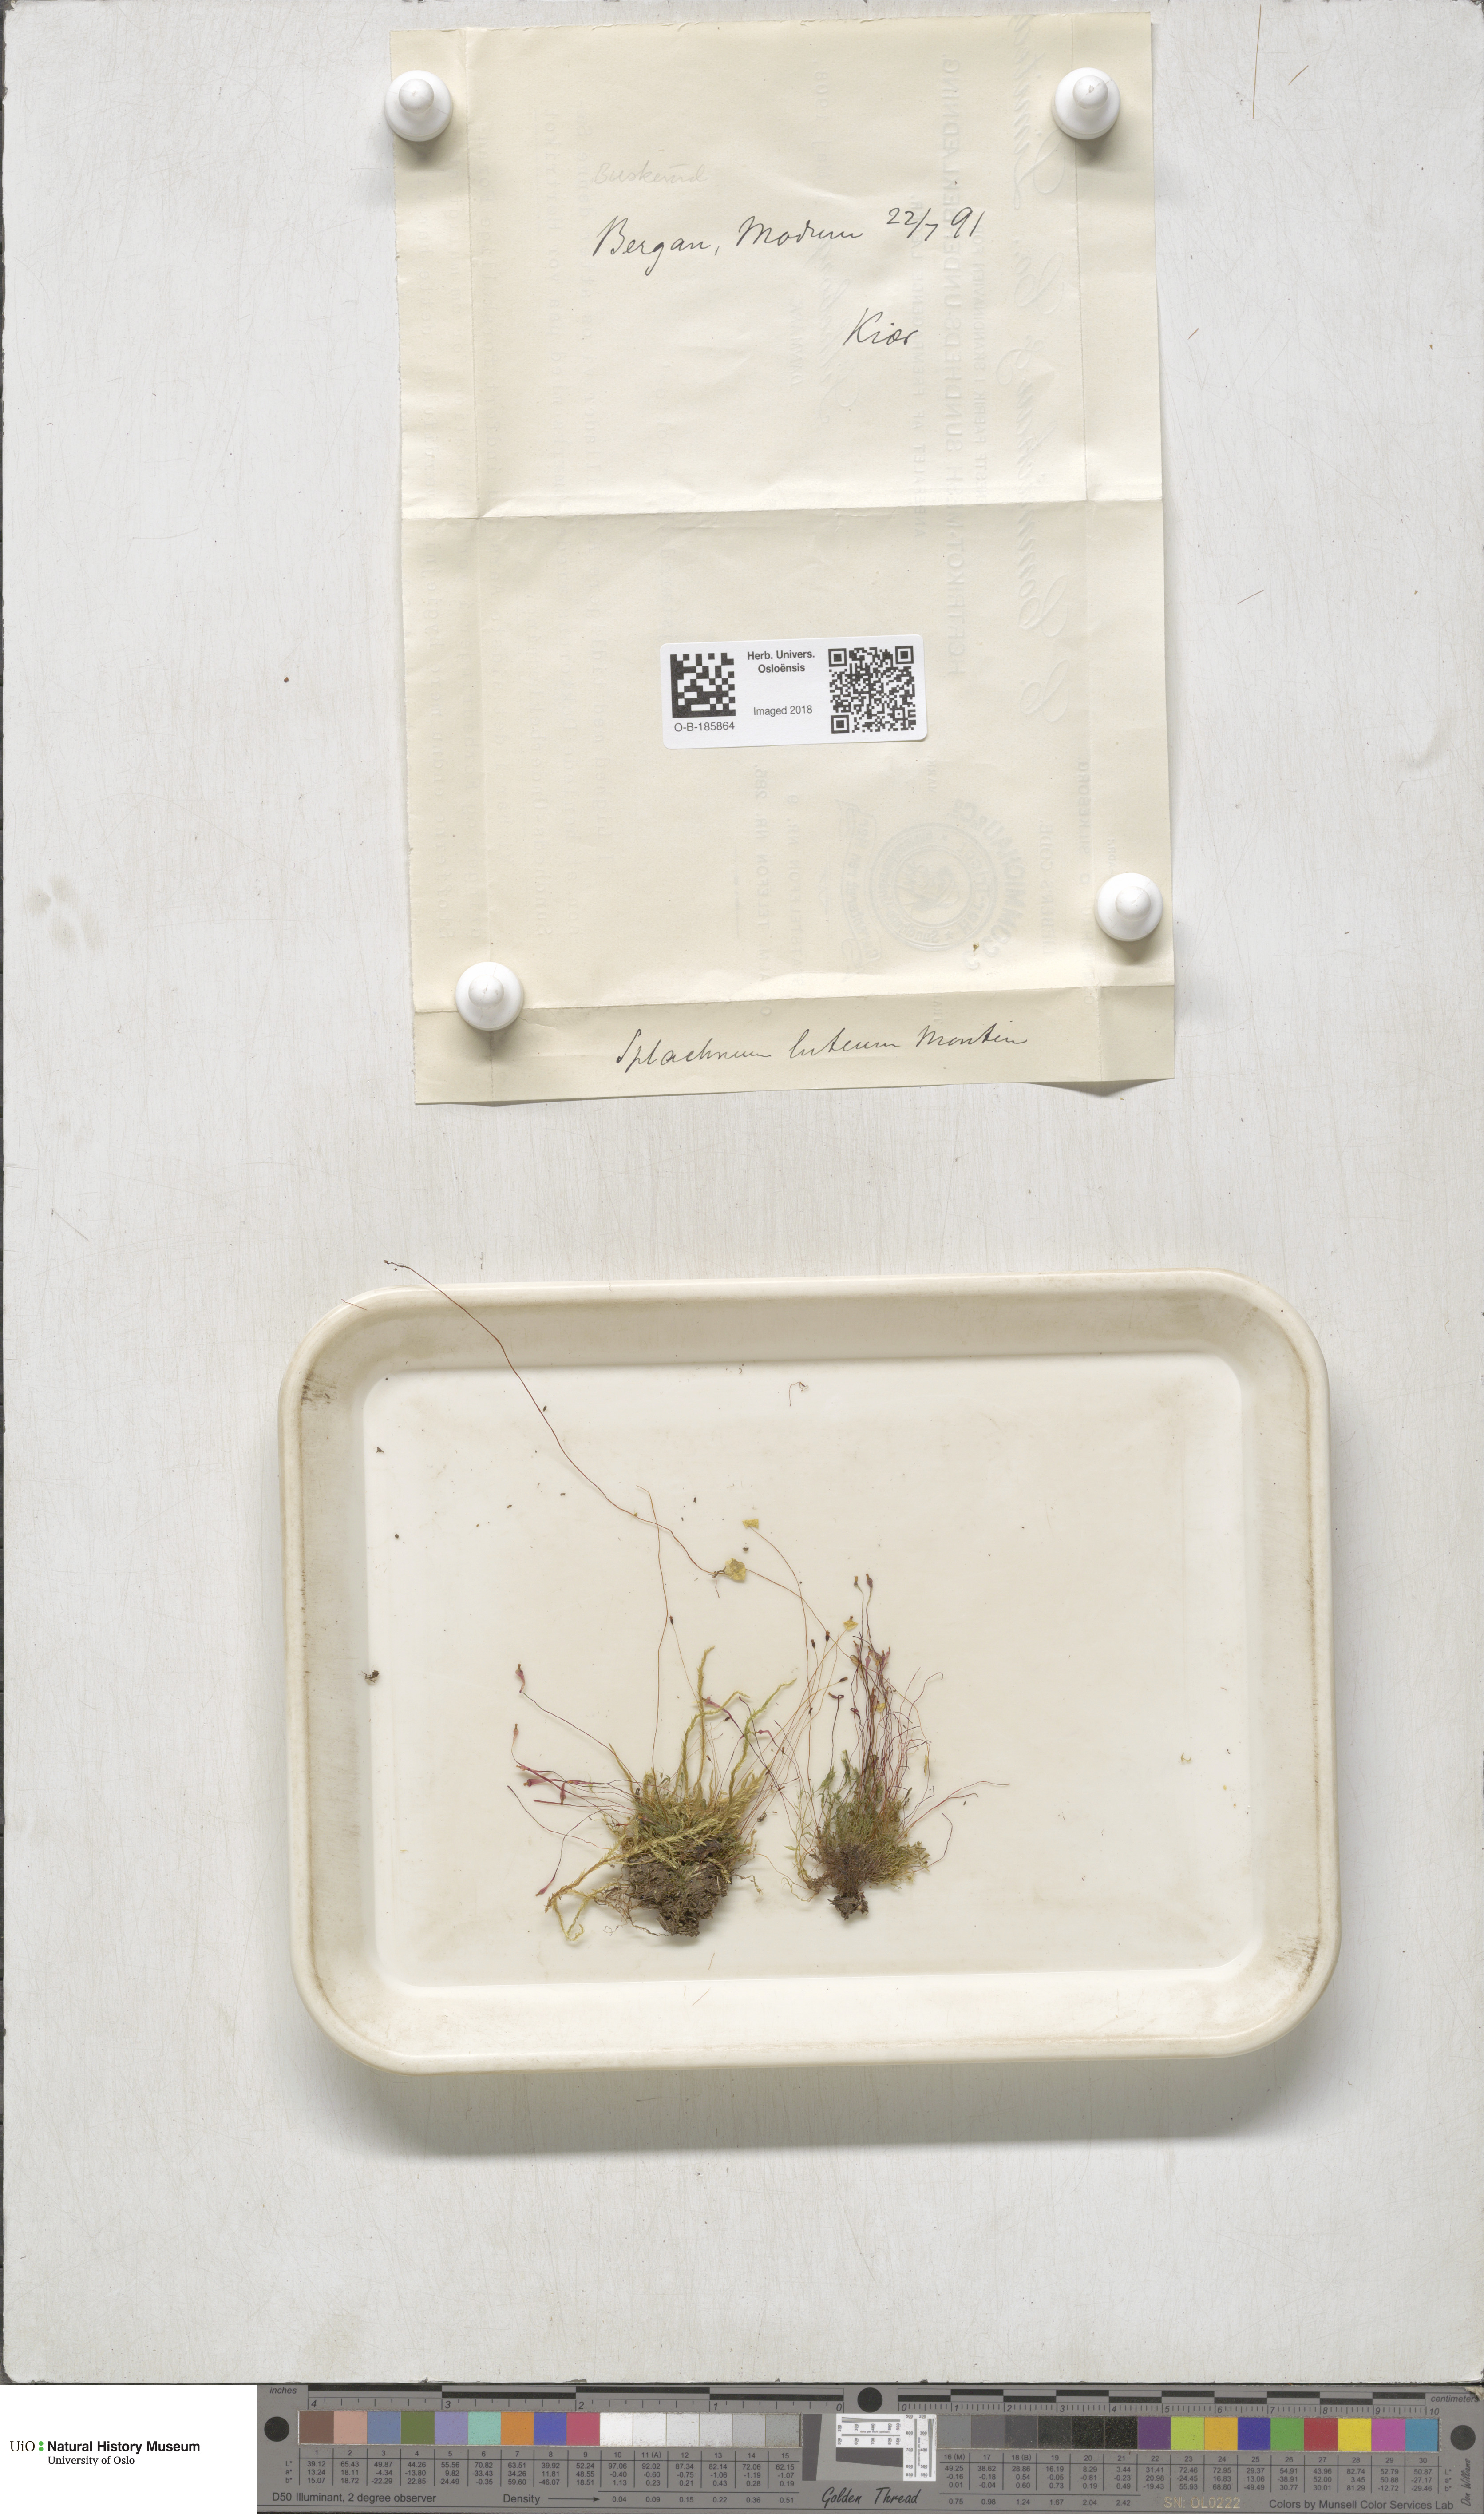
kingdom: Plantae
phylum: Bryophyta
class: Bryopsida
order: Splachnales
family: Splachnaceae
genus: Splachnum
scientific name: Splachnum luteum
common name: Yellow dung moss
